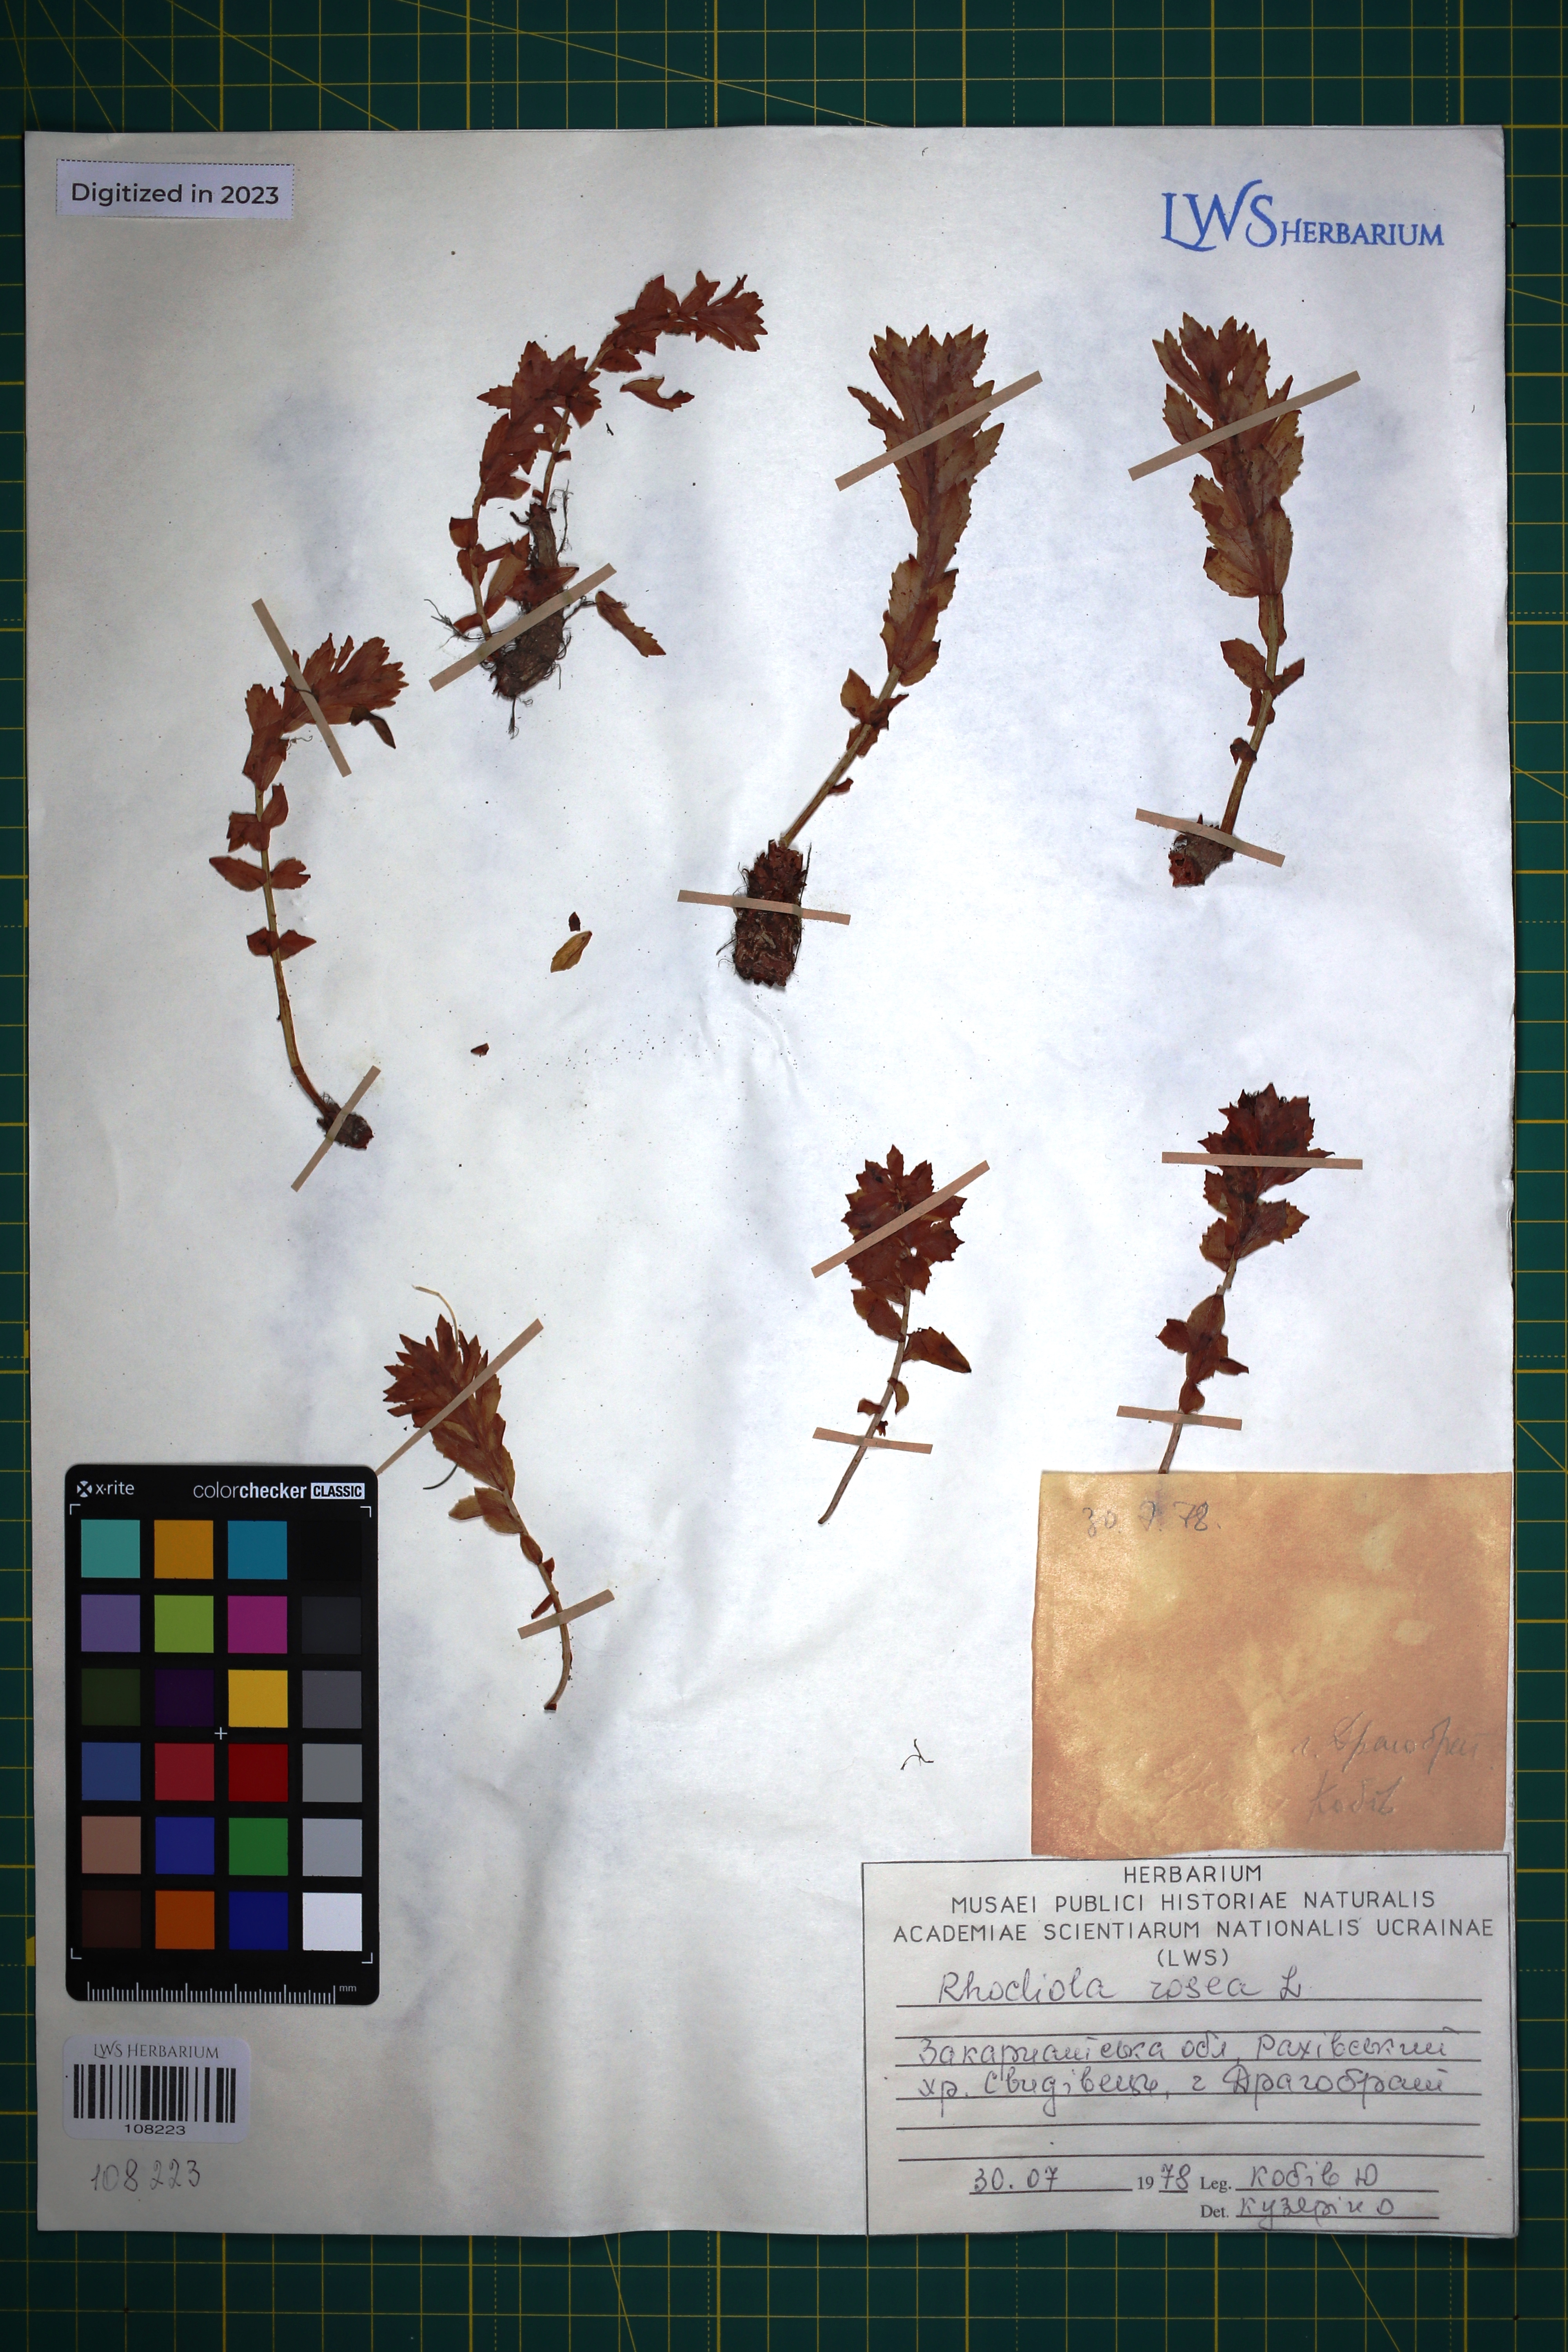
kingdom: Plantae
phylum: Tracheophyta
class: Magnoliopsida
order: Saxifragales
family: Crassulaceae
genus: Rhodiola
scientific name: Rhodiola rosea
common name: Roseroot
